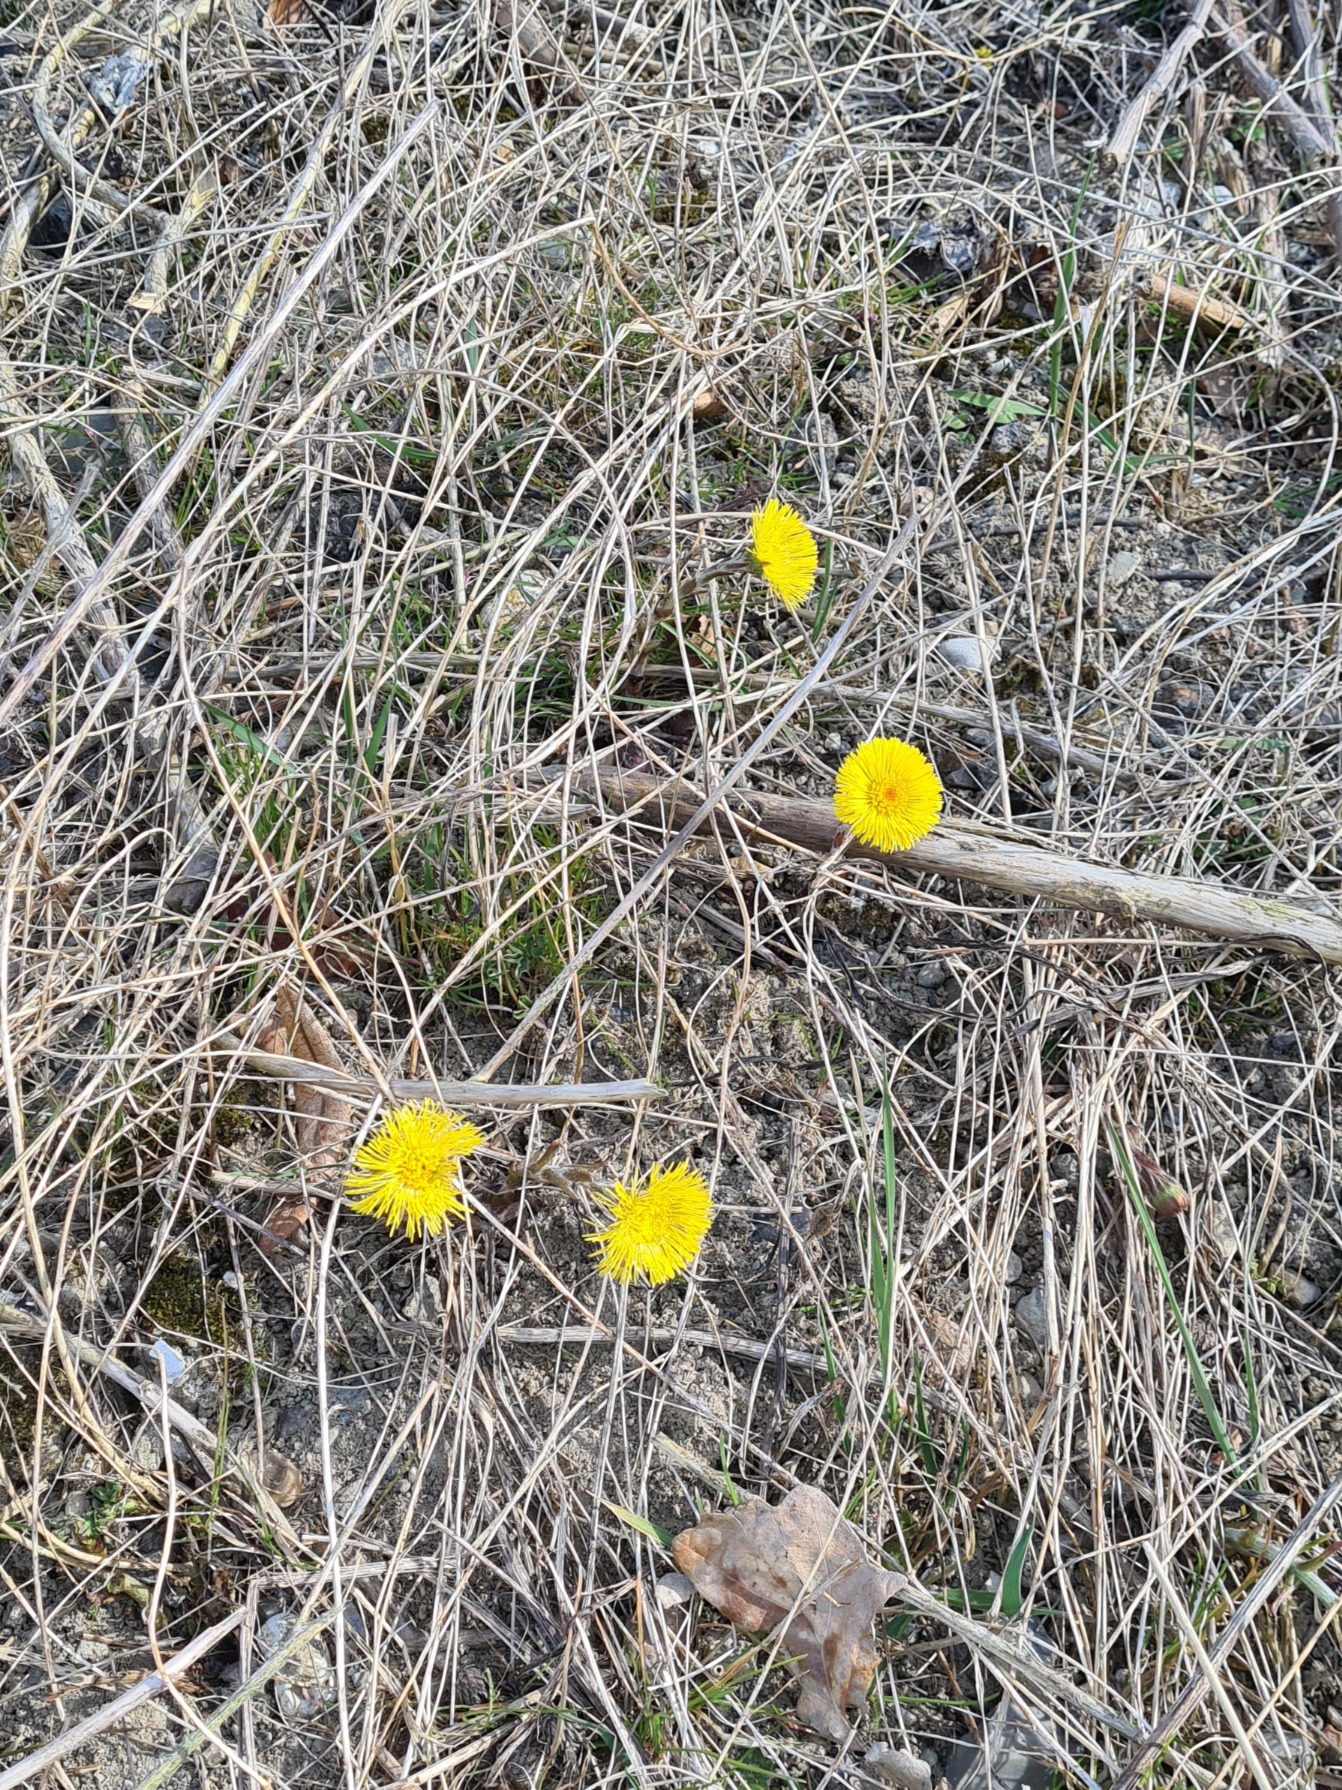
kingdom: Plantae
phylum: Tracheophyta
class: Magnoliopsida
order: Asterales
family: Asteraceae
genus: Tussilago
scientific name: Tussilago farfara
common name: Følfod
